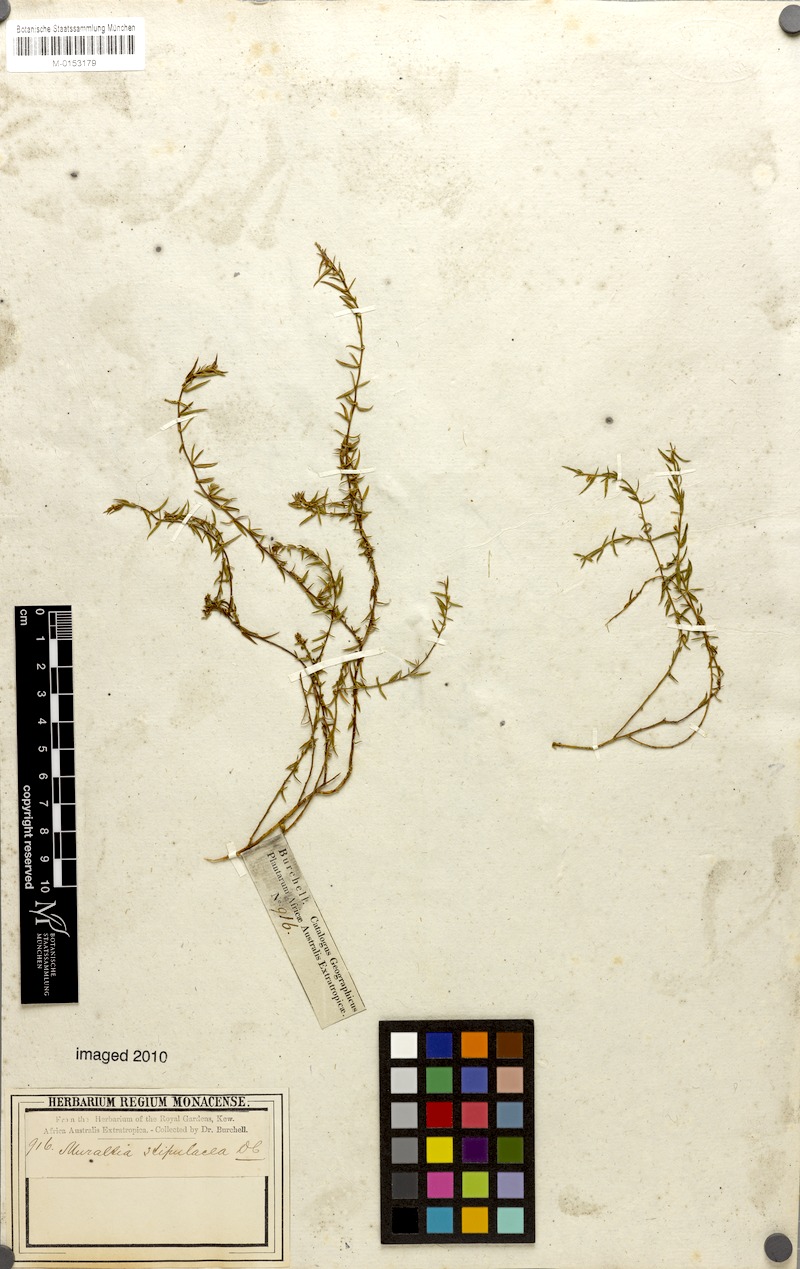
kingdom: Plantae
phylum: Tracheophyta
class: Magnoliopsida
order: Fabales
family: Polygalaceae
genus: Muraltia
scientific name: Muraltia stipulacea
